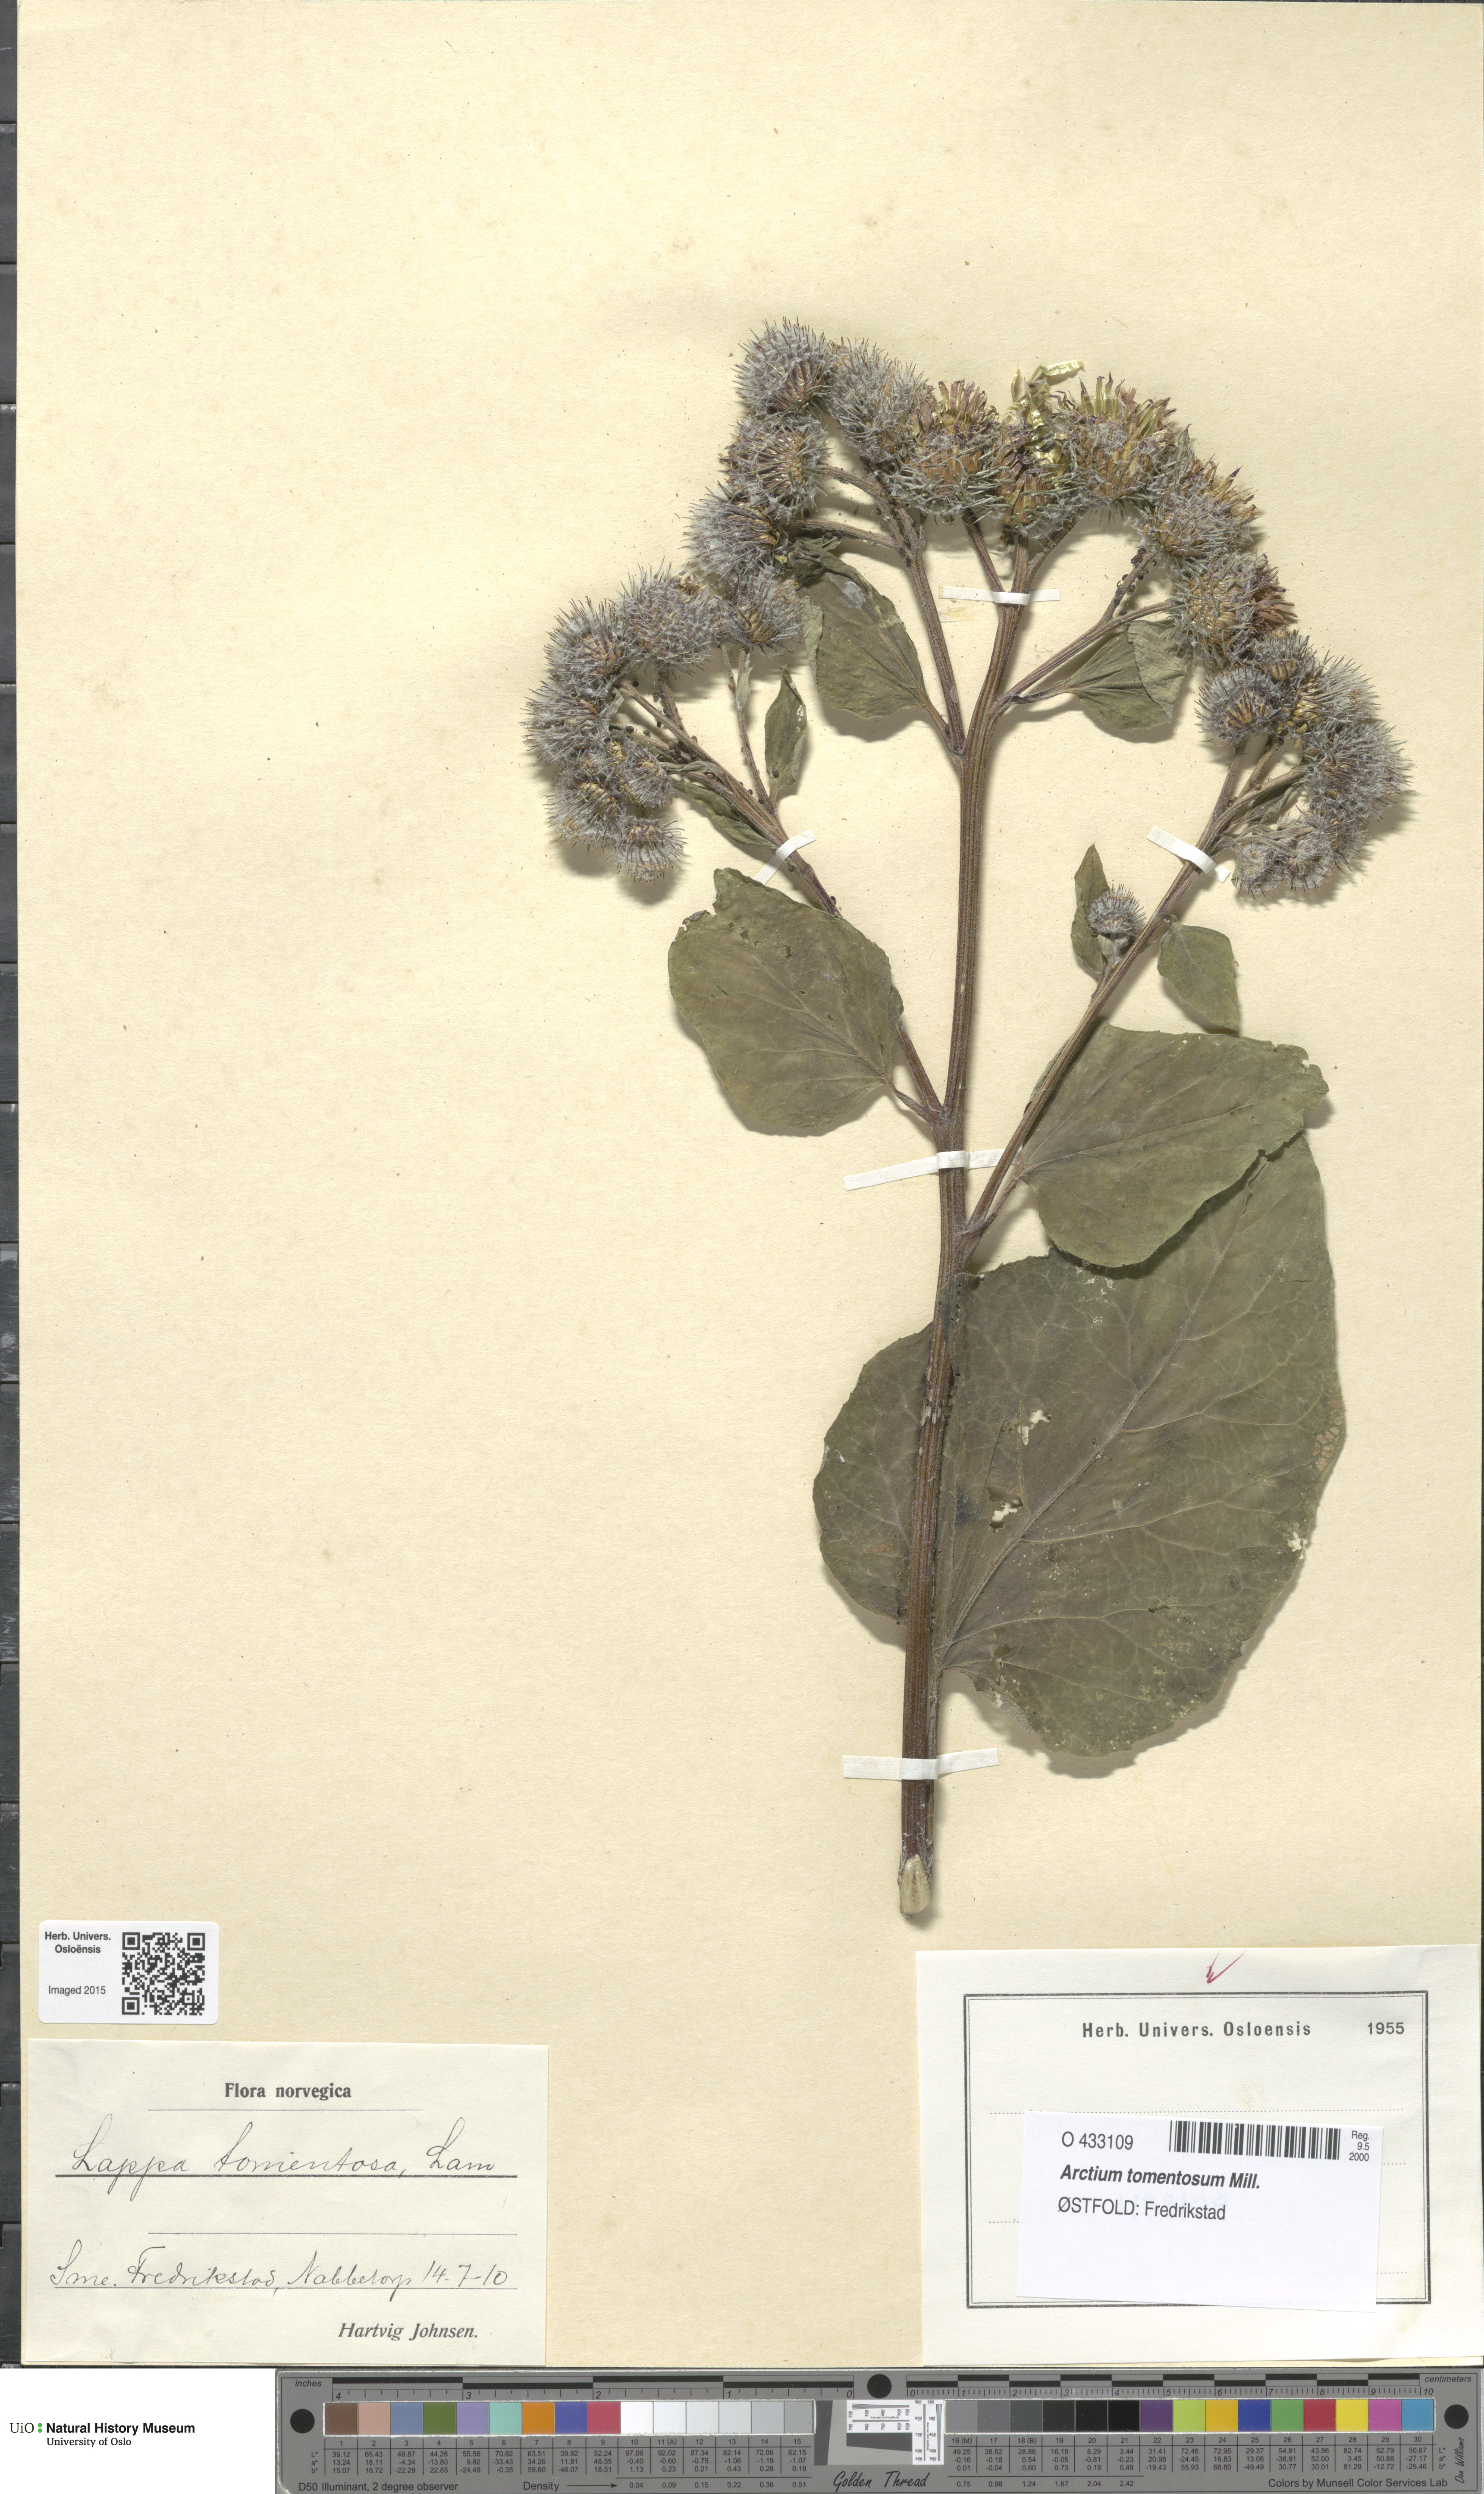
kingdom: Plantae
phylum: Tracheophyta
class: Magnoliopsida
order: Asterales
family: Asteraceae
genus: Arctium
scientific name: Arctium tomentosum
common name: Woolly burdock
